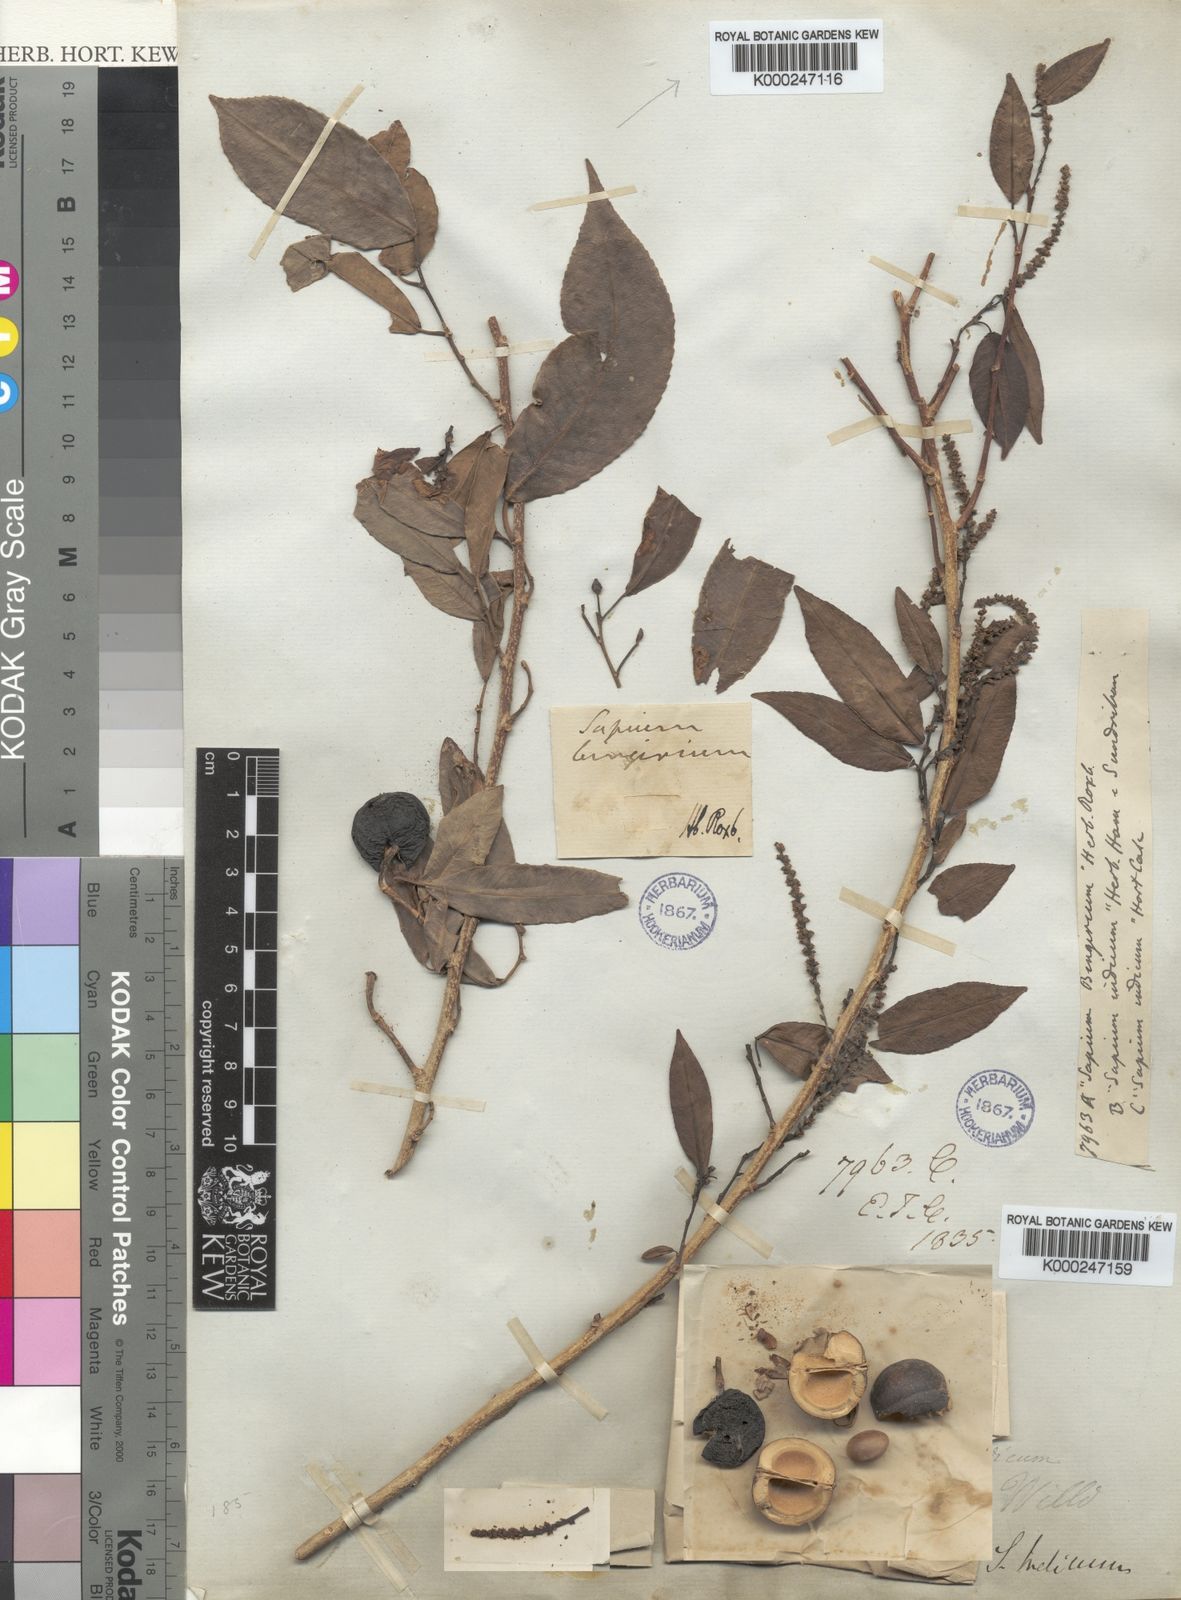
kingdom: Plantae
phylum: Tracheophyta
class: Magnoliopsida
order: Malpighiales
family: Euphorbiaceae
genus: Shirakiopsis
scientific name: Shirakiopsis indica
